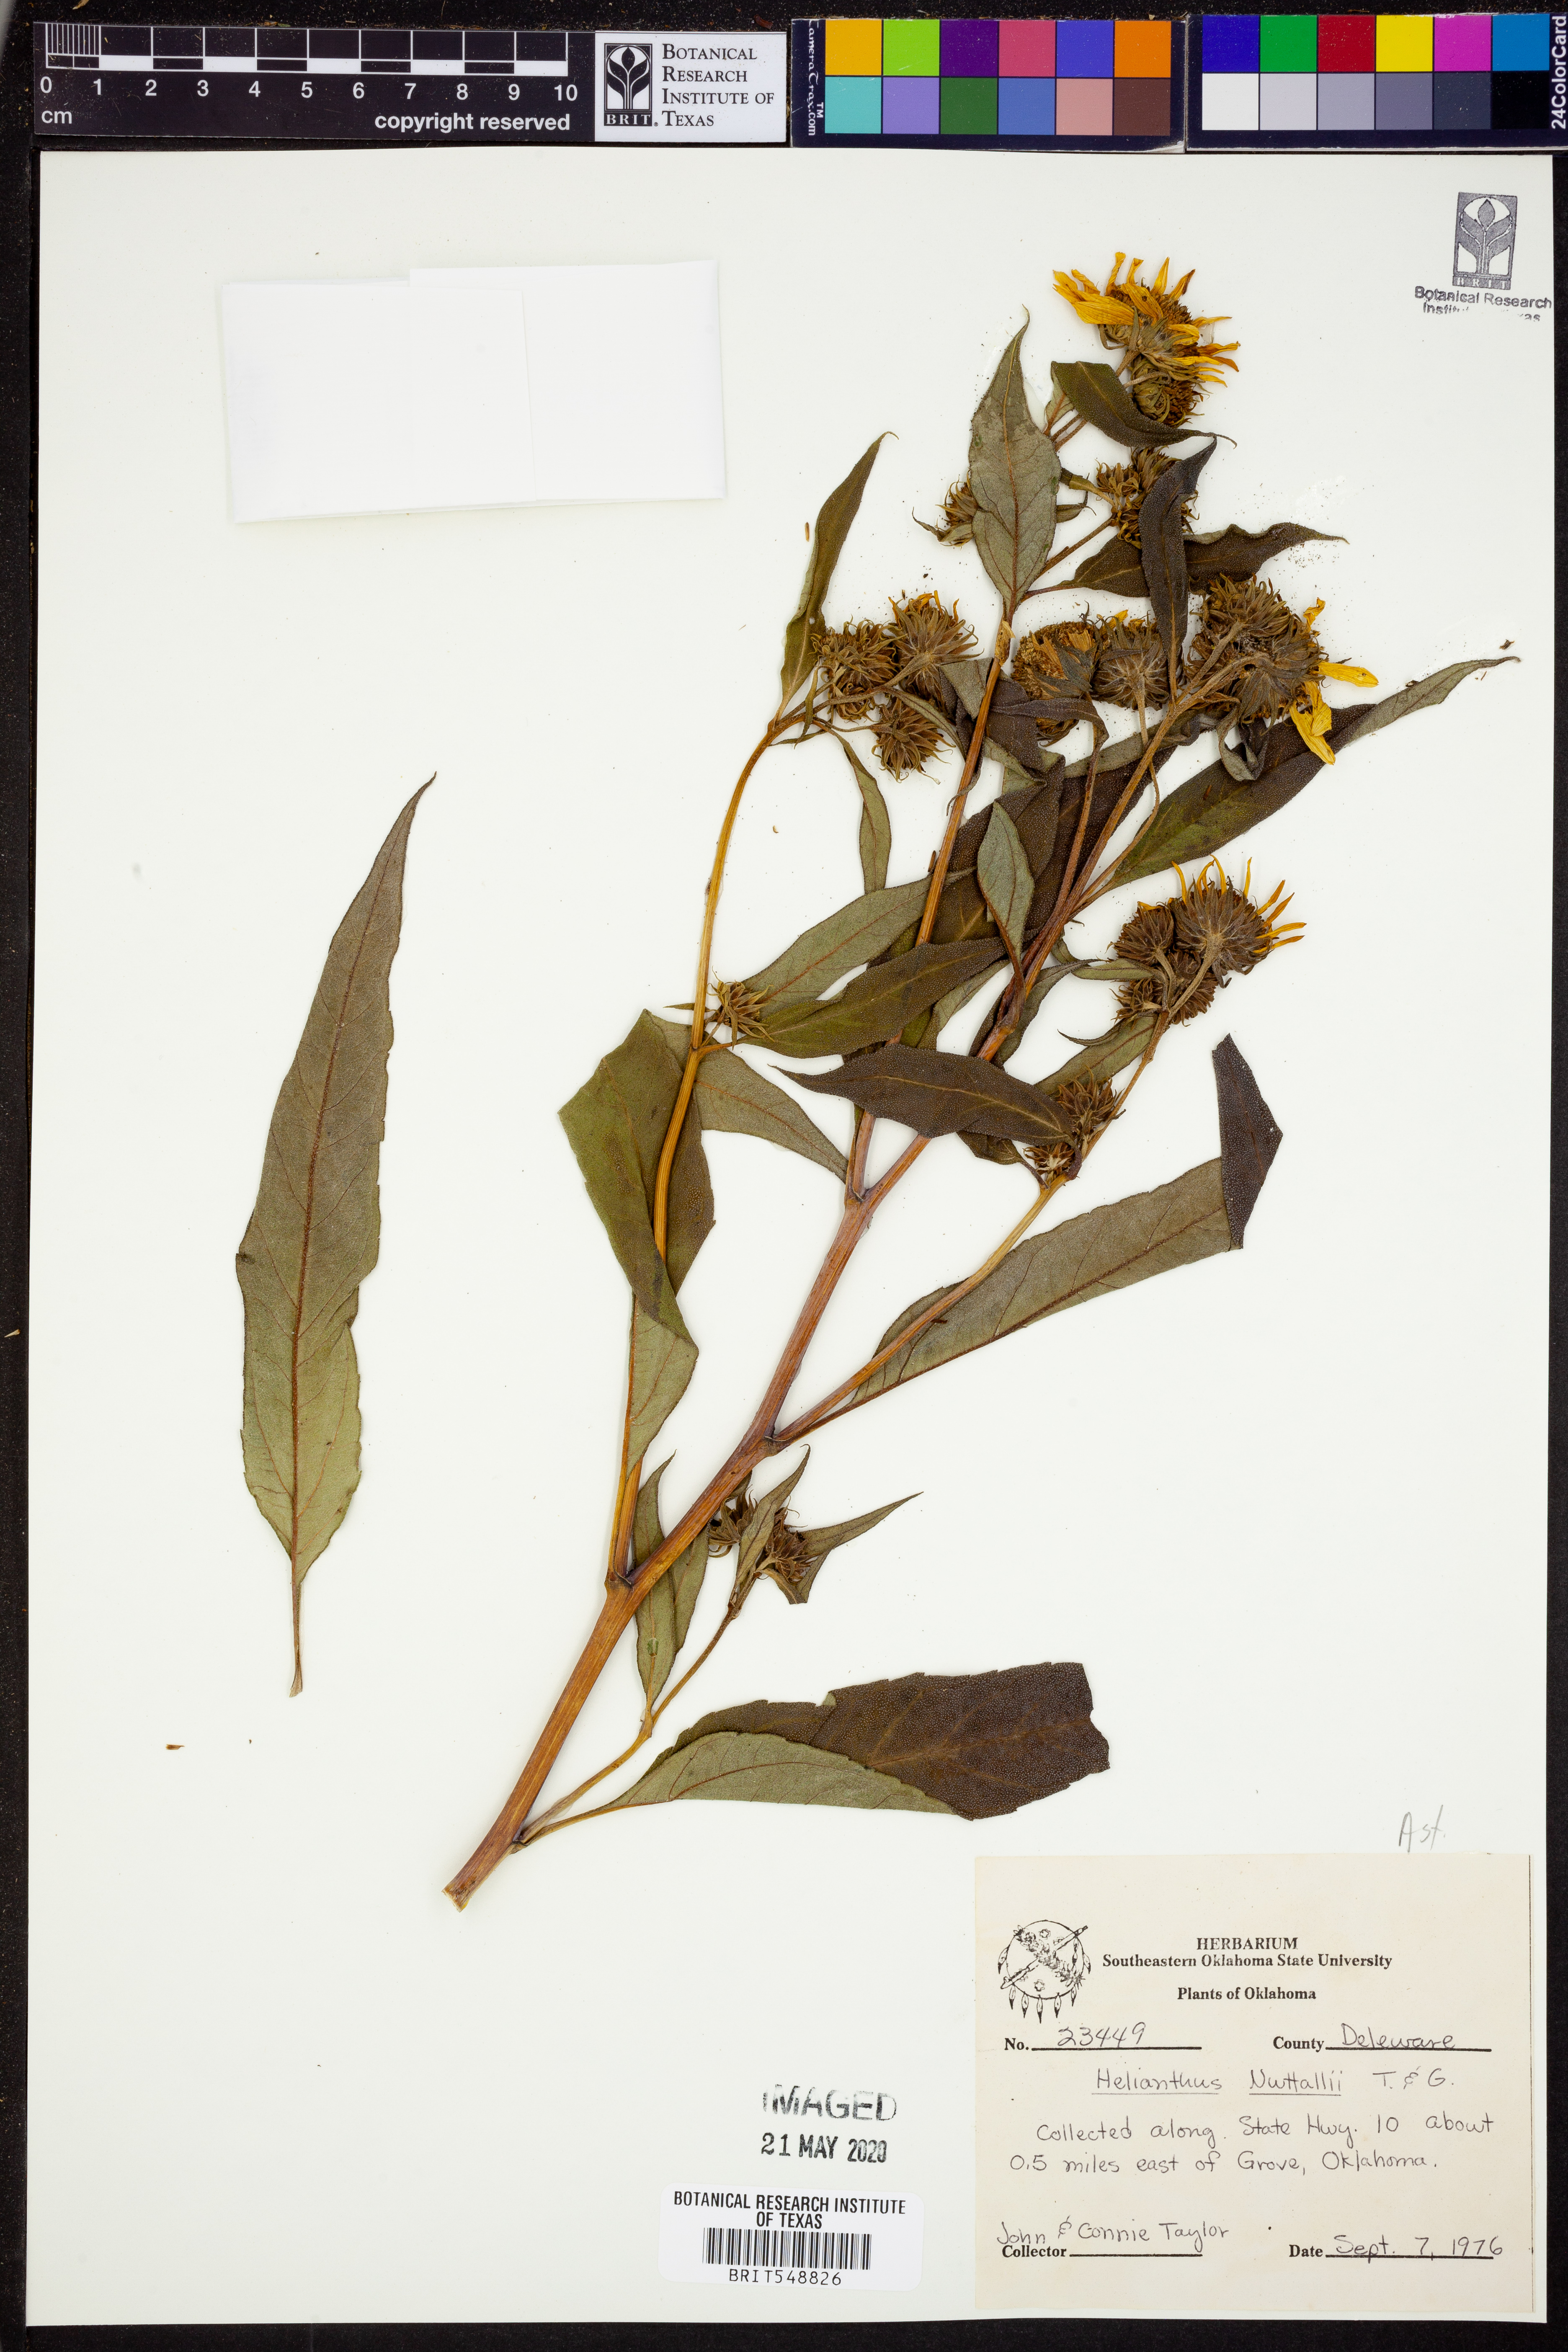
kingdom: Plantae
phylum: Tracheophyta
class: Magnoliopsida
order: Asterales
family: Asteraceae
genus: Helianthus
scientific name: Helianthus nuttallii
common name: Nuttall's sunflower
